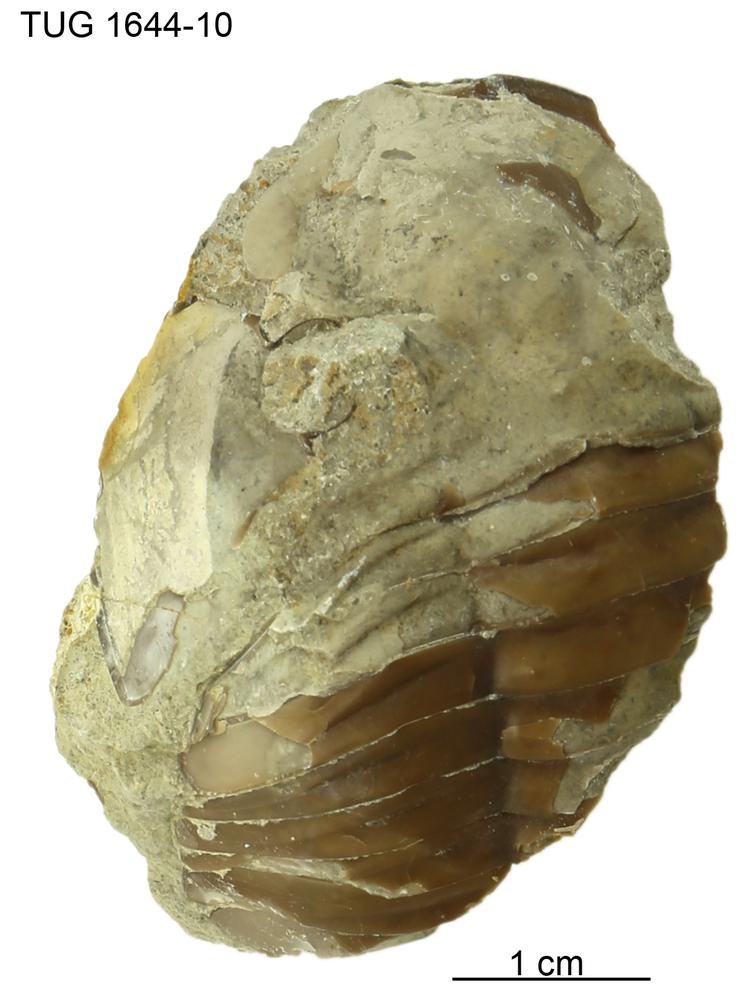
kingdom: Animalia
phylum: Arthropoda
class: Trilobita
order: Asaphida
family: Asaphidae
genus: Asaphus
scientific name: Asaphus
